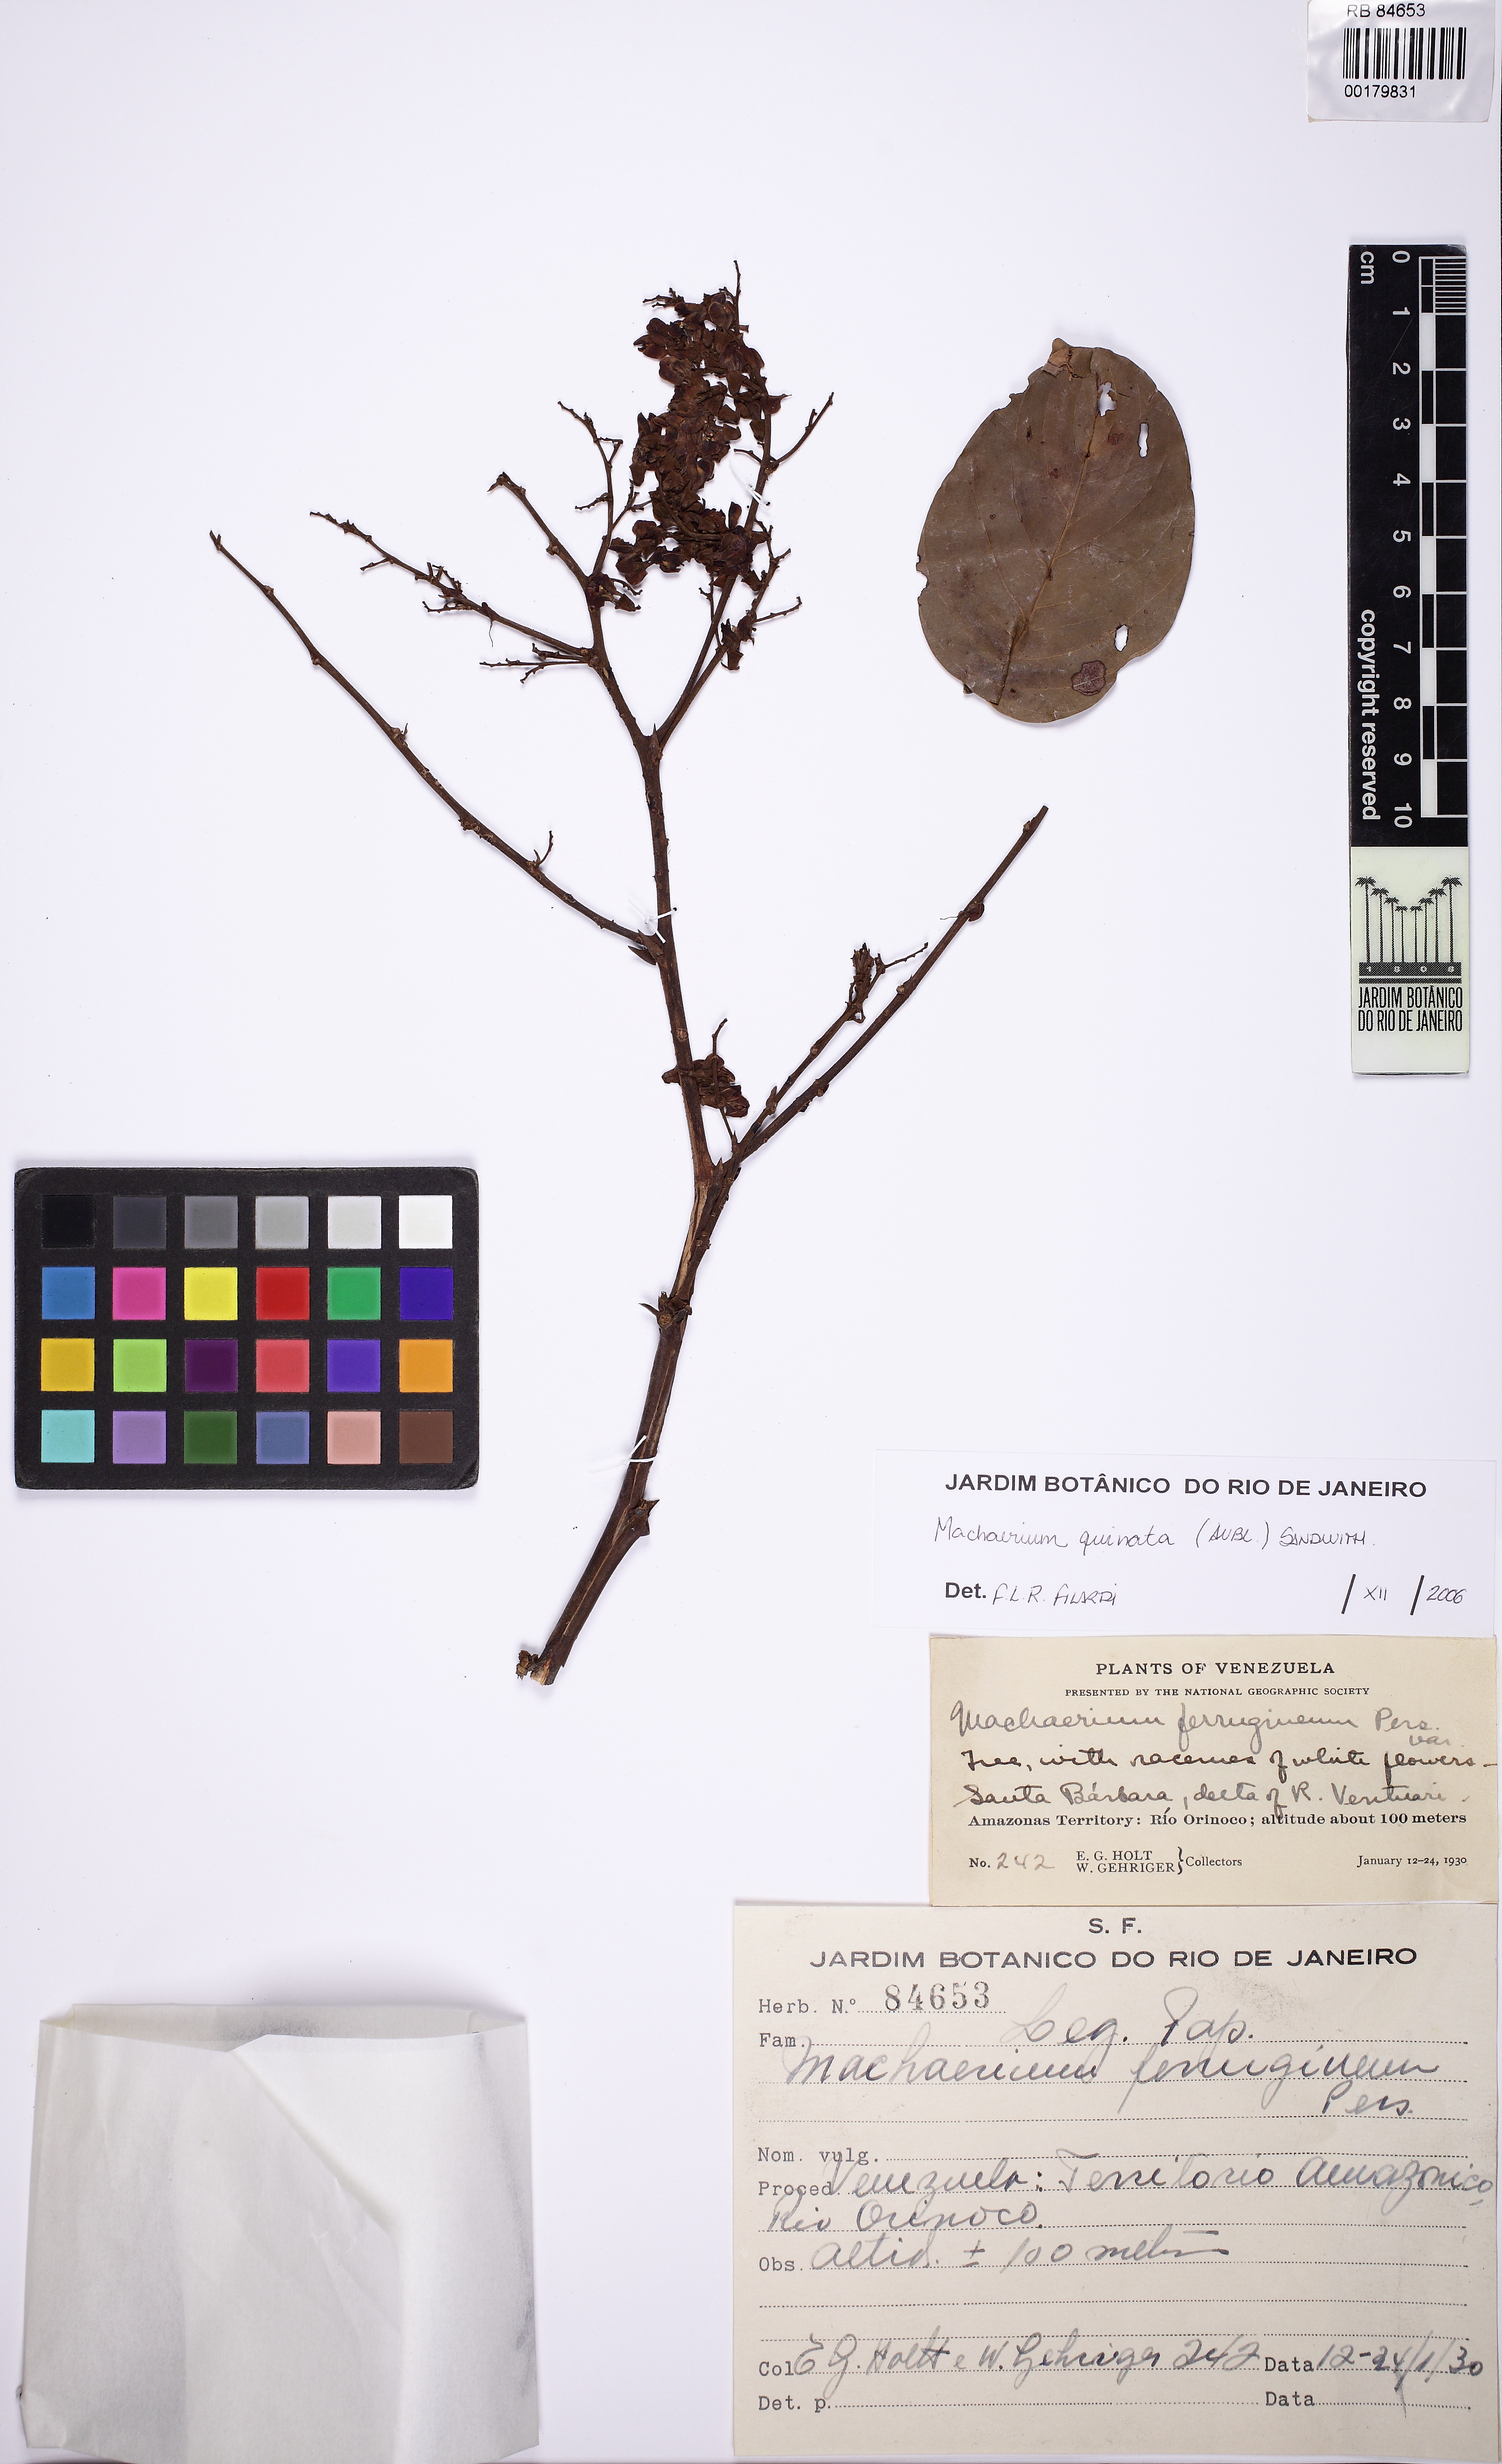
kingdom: Plantae
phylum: Tracheophyta
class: Magnoliopsida
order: Fabales
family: Fabaceae
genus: Machaerium
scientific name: Machaerium quinata
